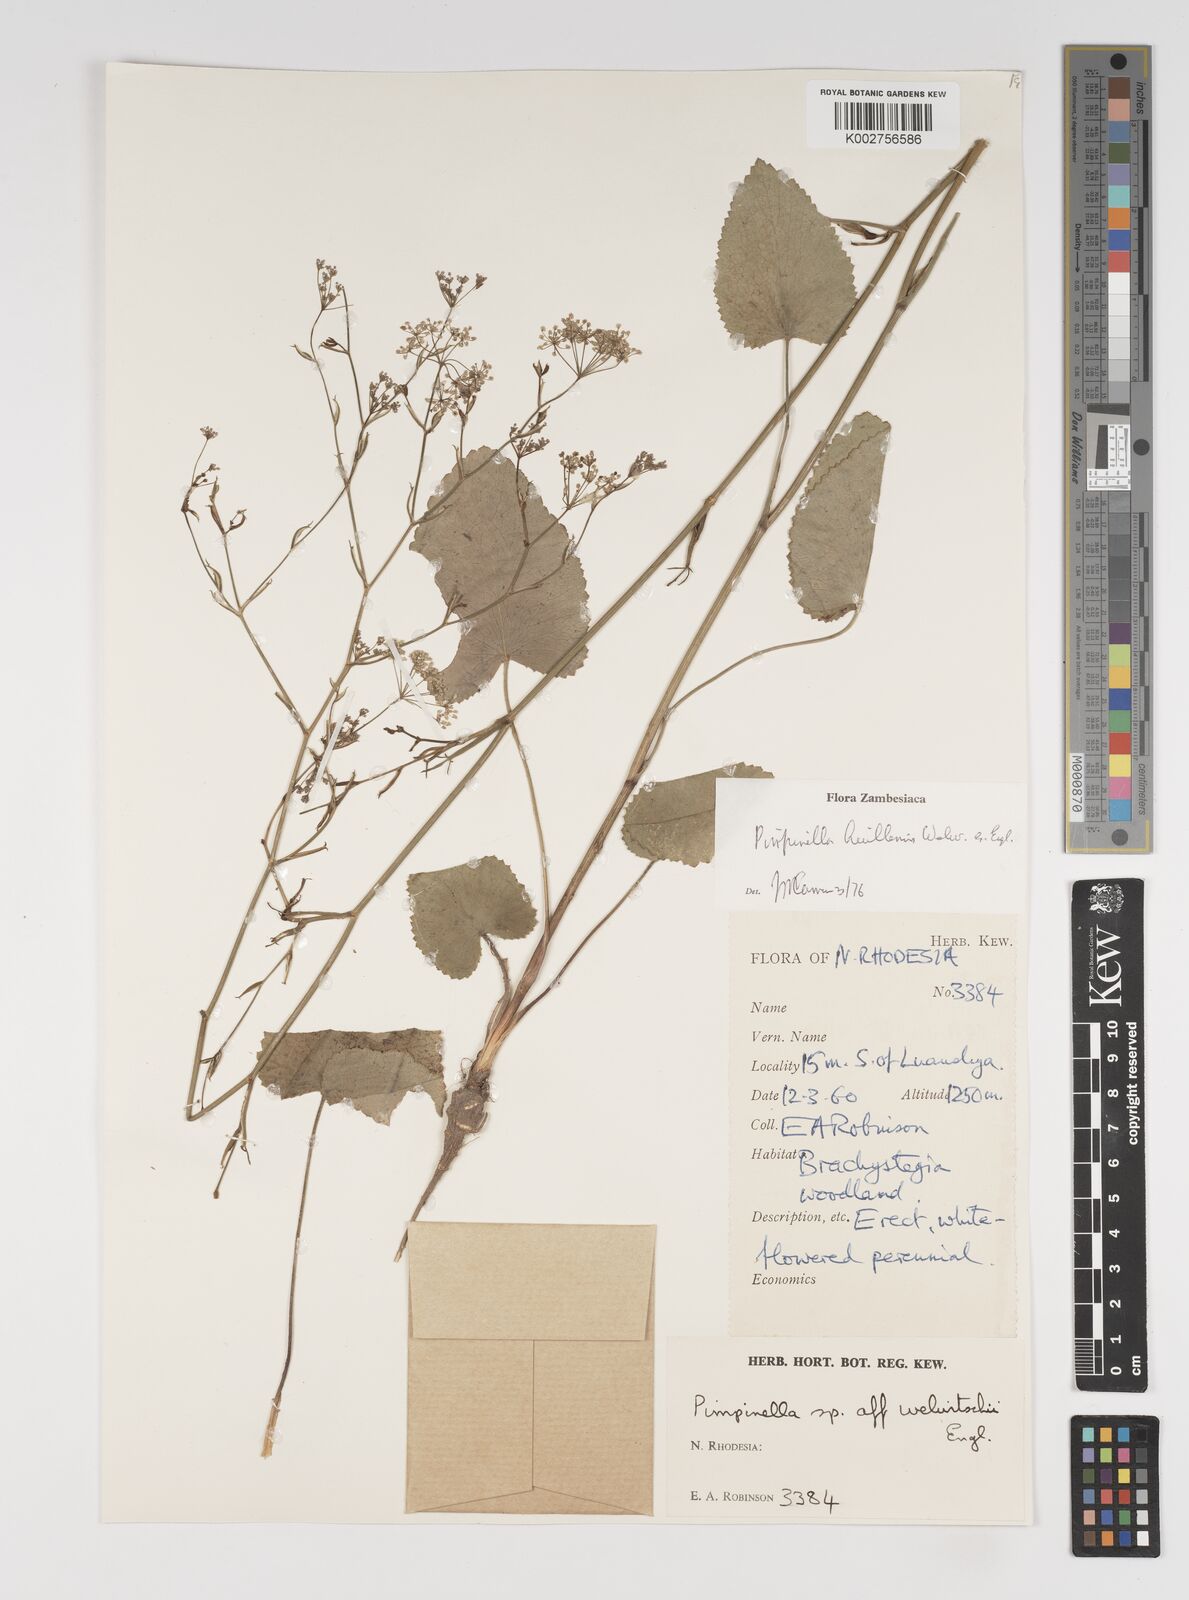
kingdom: Plantae
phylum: Tracheophyta
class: Magnoliopsida
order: Apiales
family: Apiaceae
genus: Pimpinella
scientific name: Pimpinella huillensis
